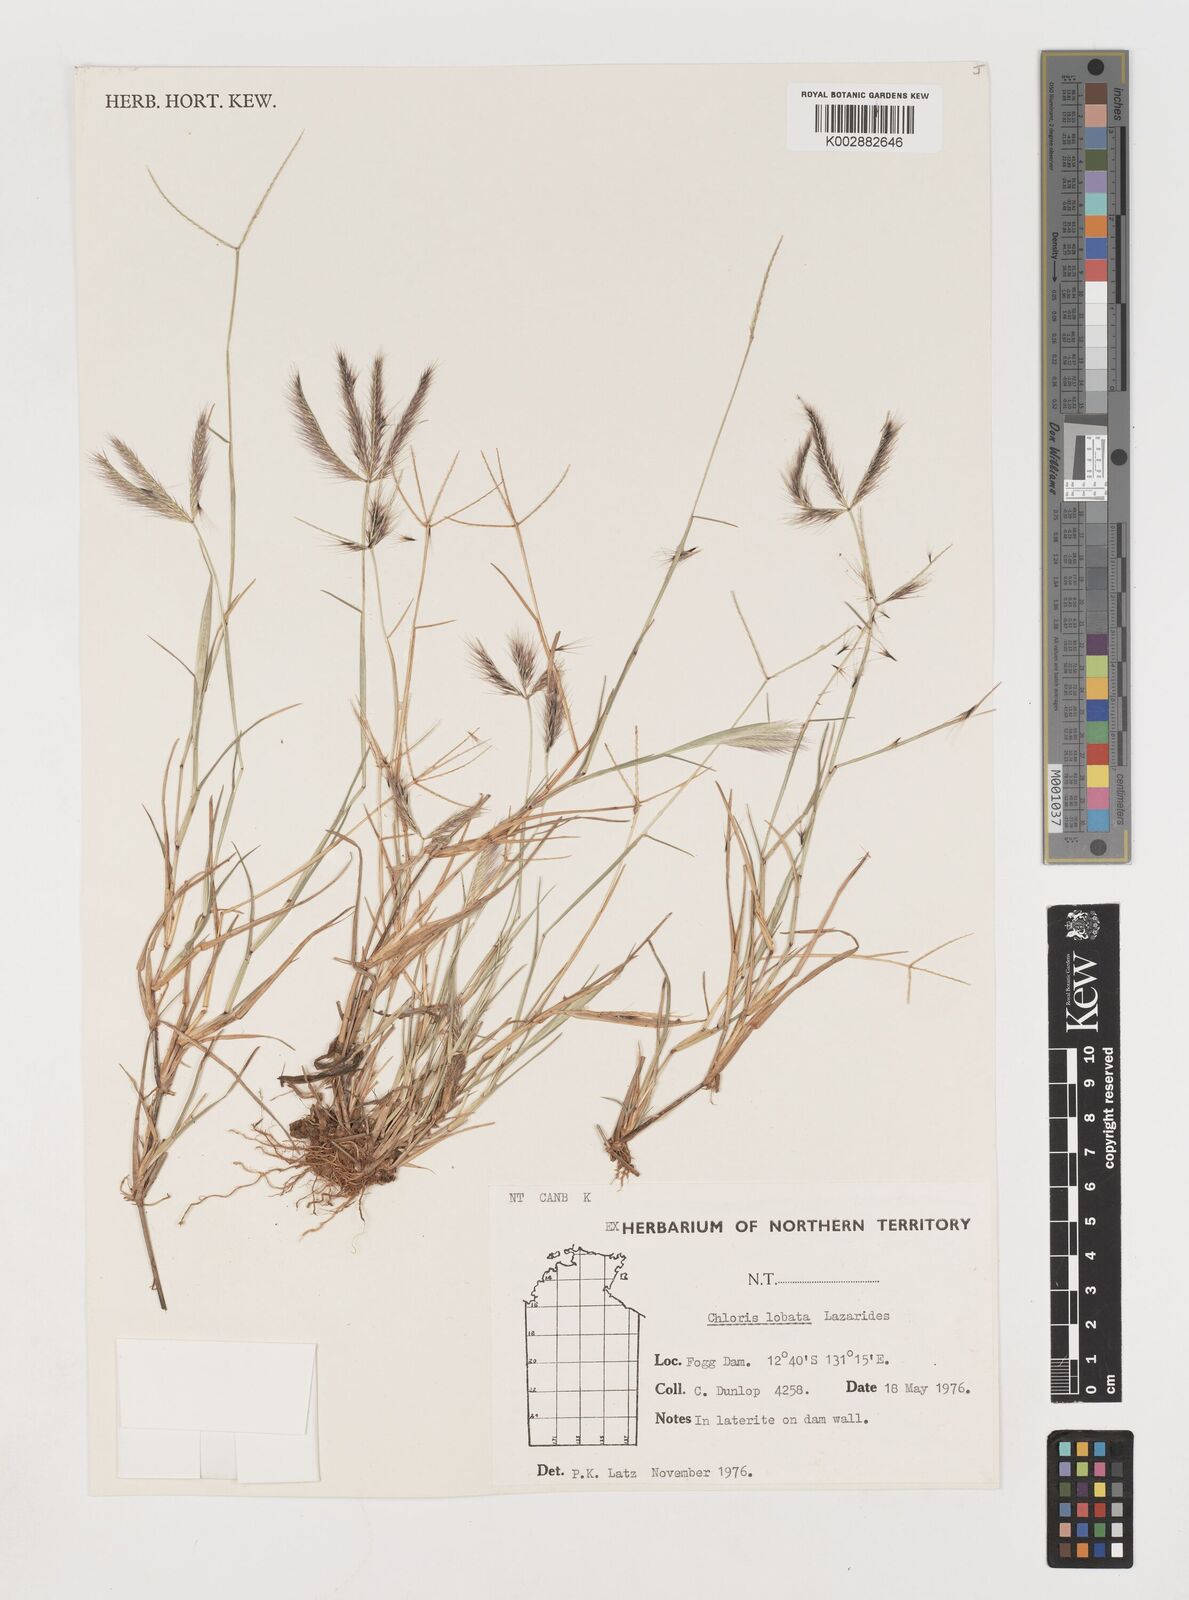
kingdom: Plantae
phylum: Tracheophyta
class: Liliopsida
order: Poales
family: Poaceae
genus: Chloris
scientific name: Chloris lobata
